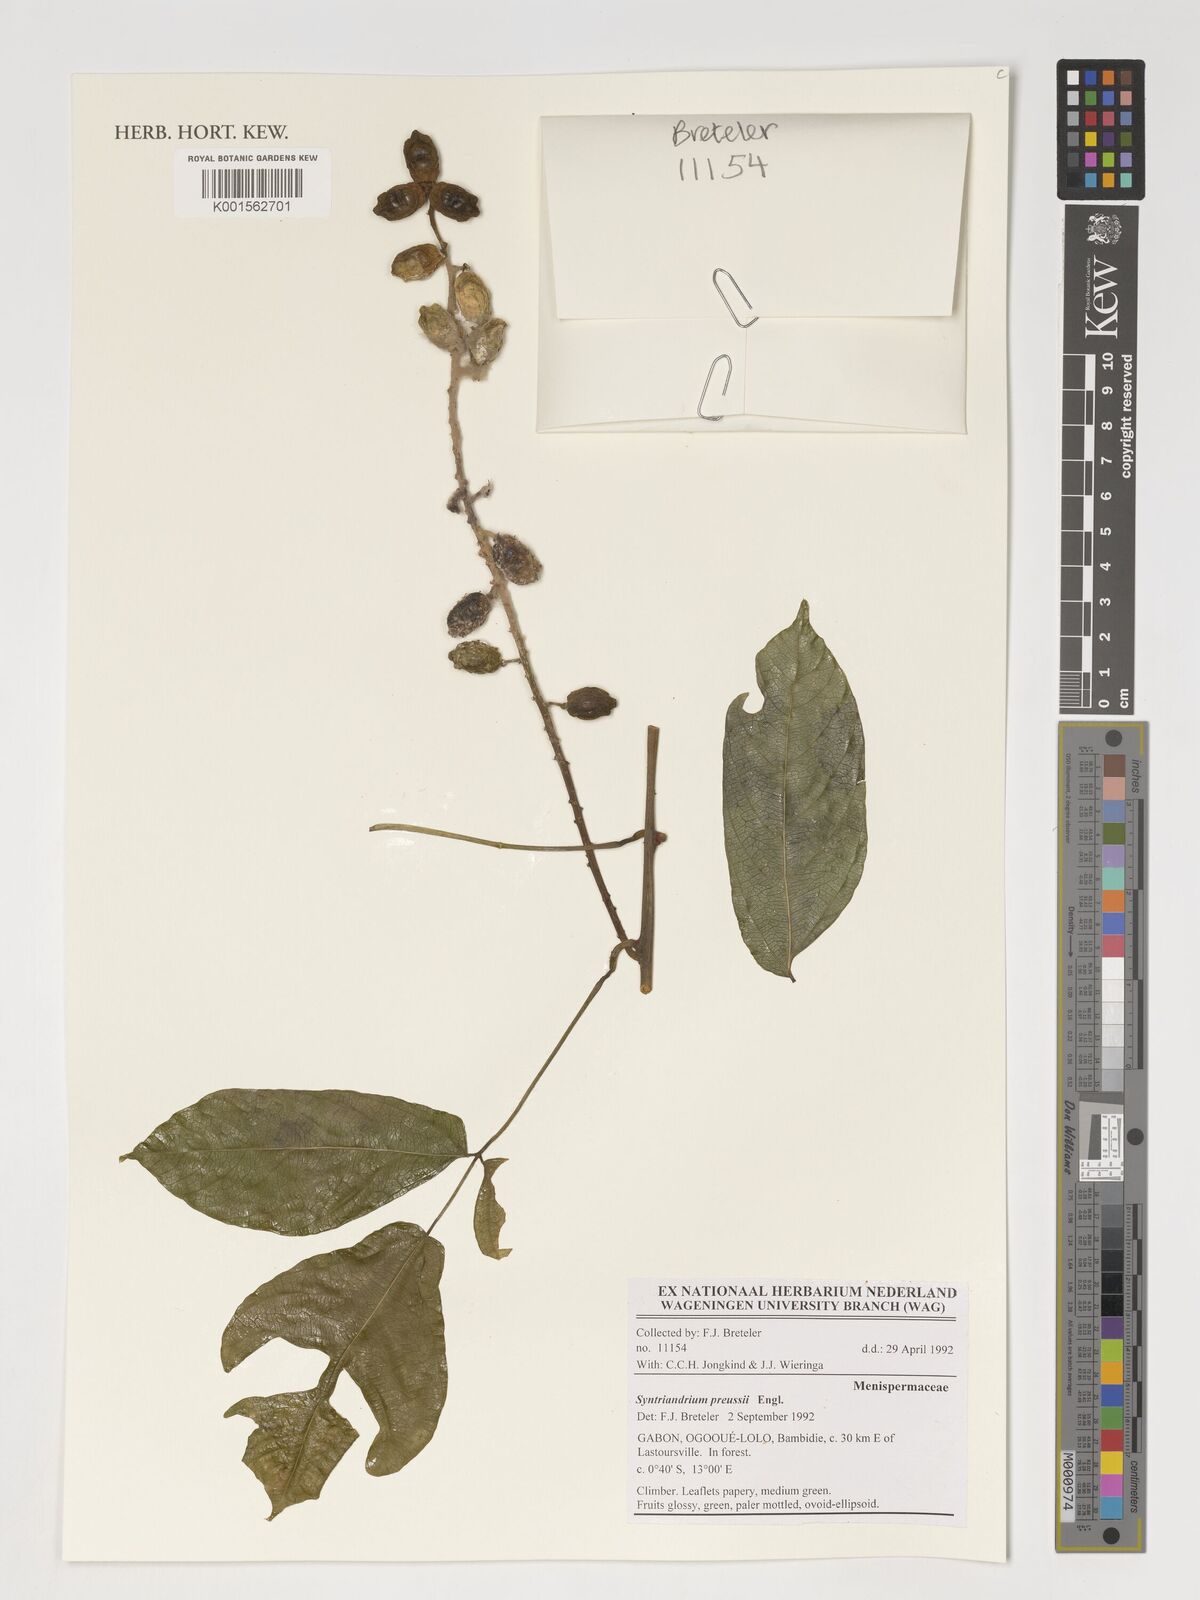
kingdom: Plantae
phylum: Tracheophyta
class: Magnoliopsida
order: Ranunculales
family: Menispermaceae
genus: Syntriandrium
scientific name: Syntriandrium preussii
